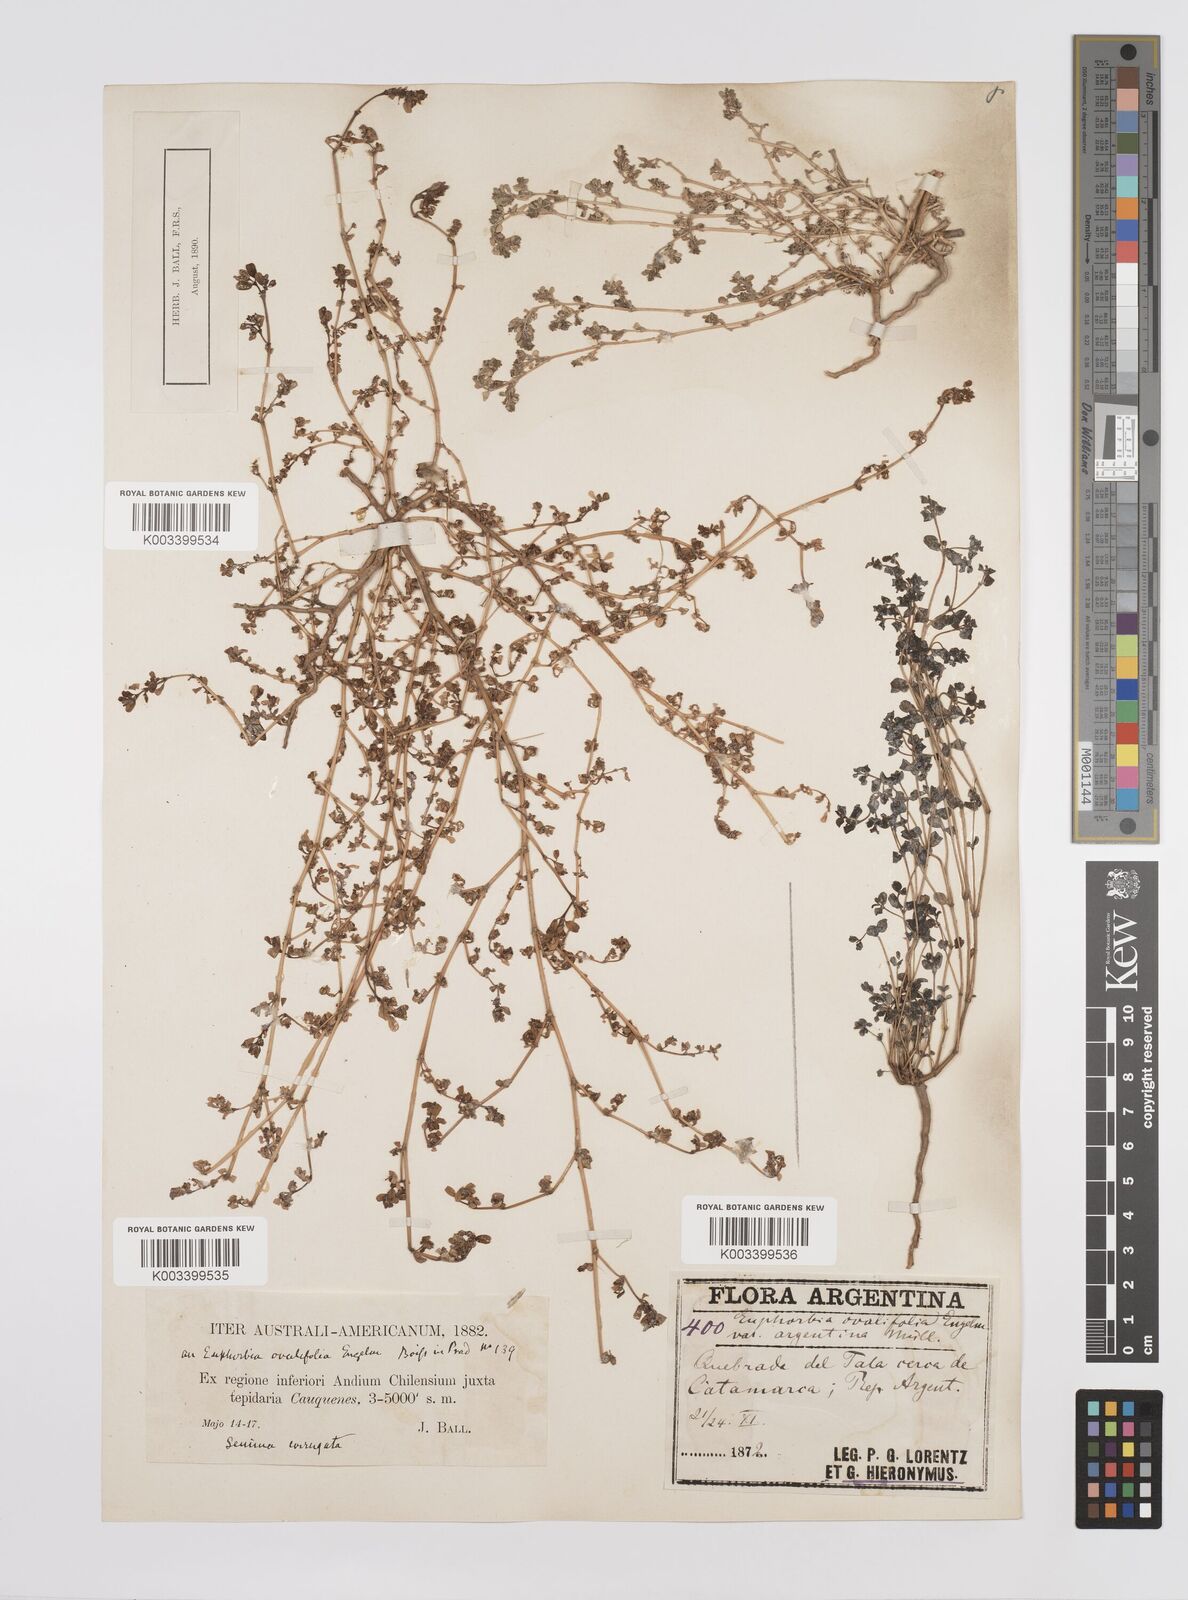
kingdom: Plantae
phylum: Tracheophyta
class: Magnoliopsida
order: Malpighiales
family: Euphorbiaceae
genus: Euphorbia
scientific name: Euphorbia
